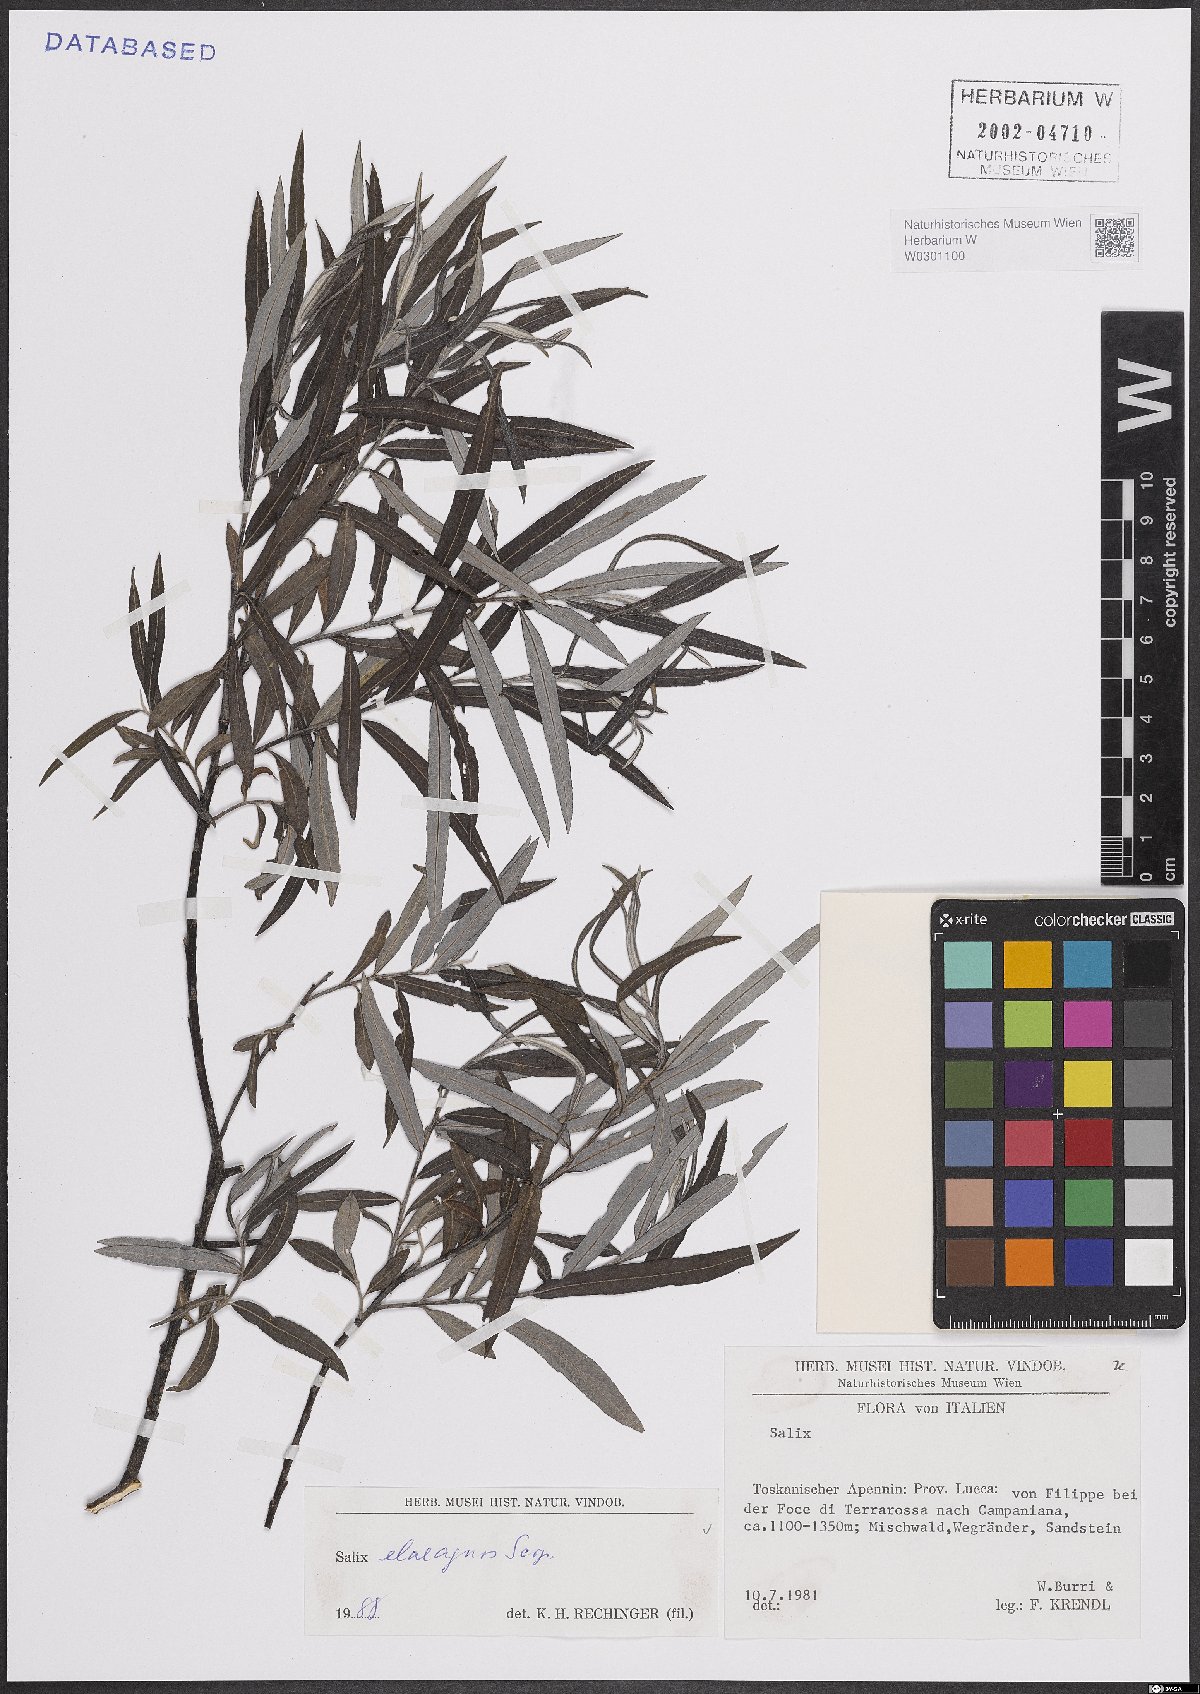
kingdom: Plantae
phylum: Tracheophyta
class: Magnoliopsida
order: Malpighiales
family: Salicaceae
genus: Salix
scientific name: Salix eleagnos
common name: Elaeagnus willow
